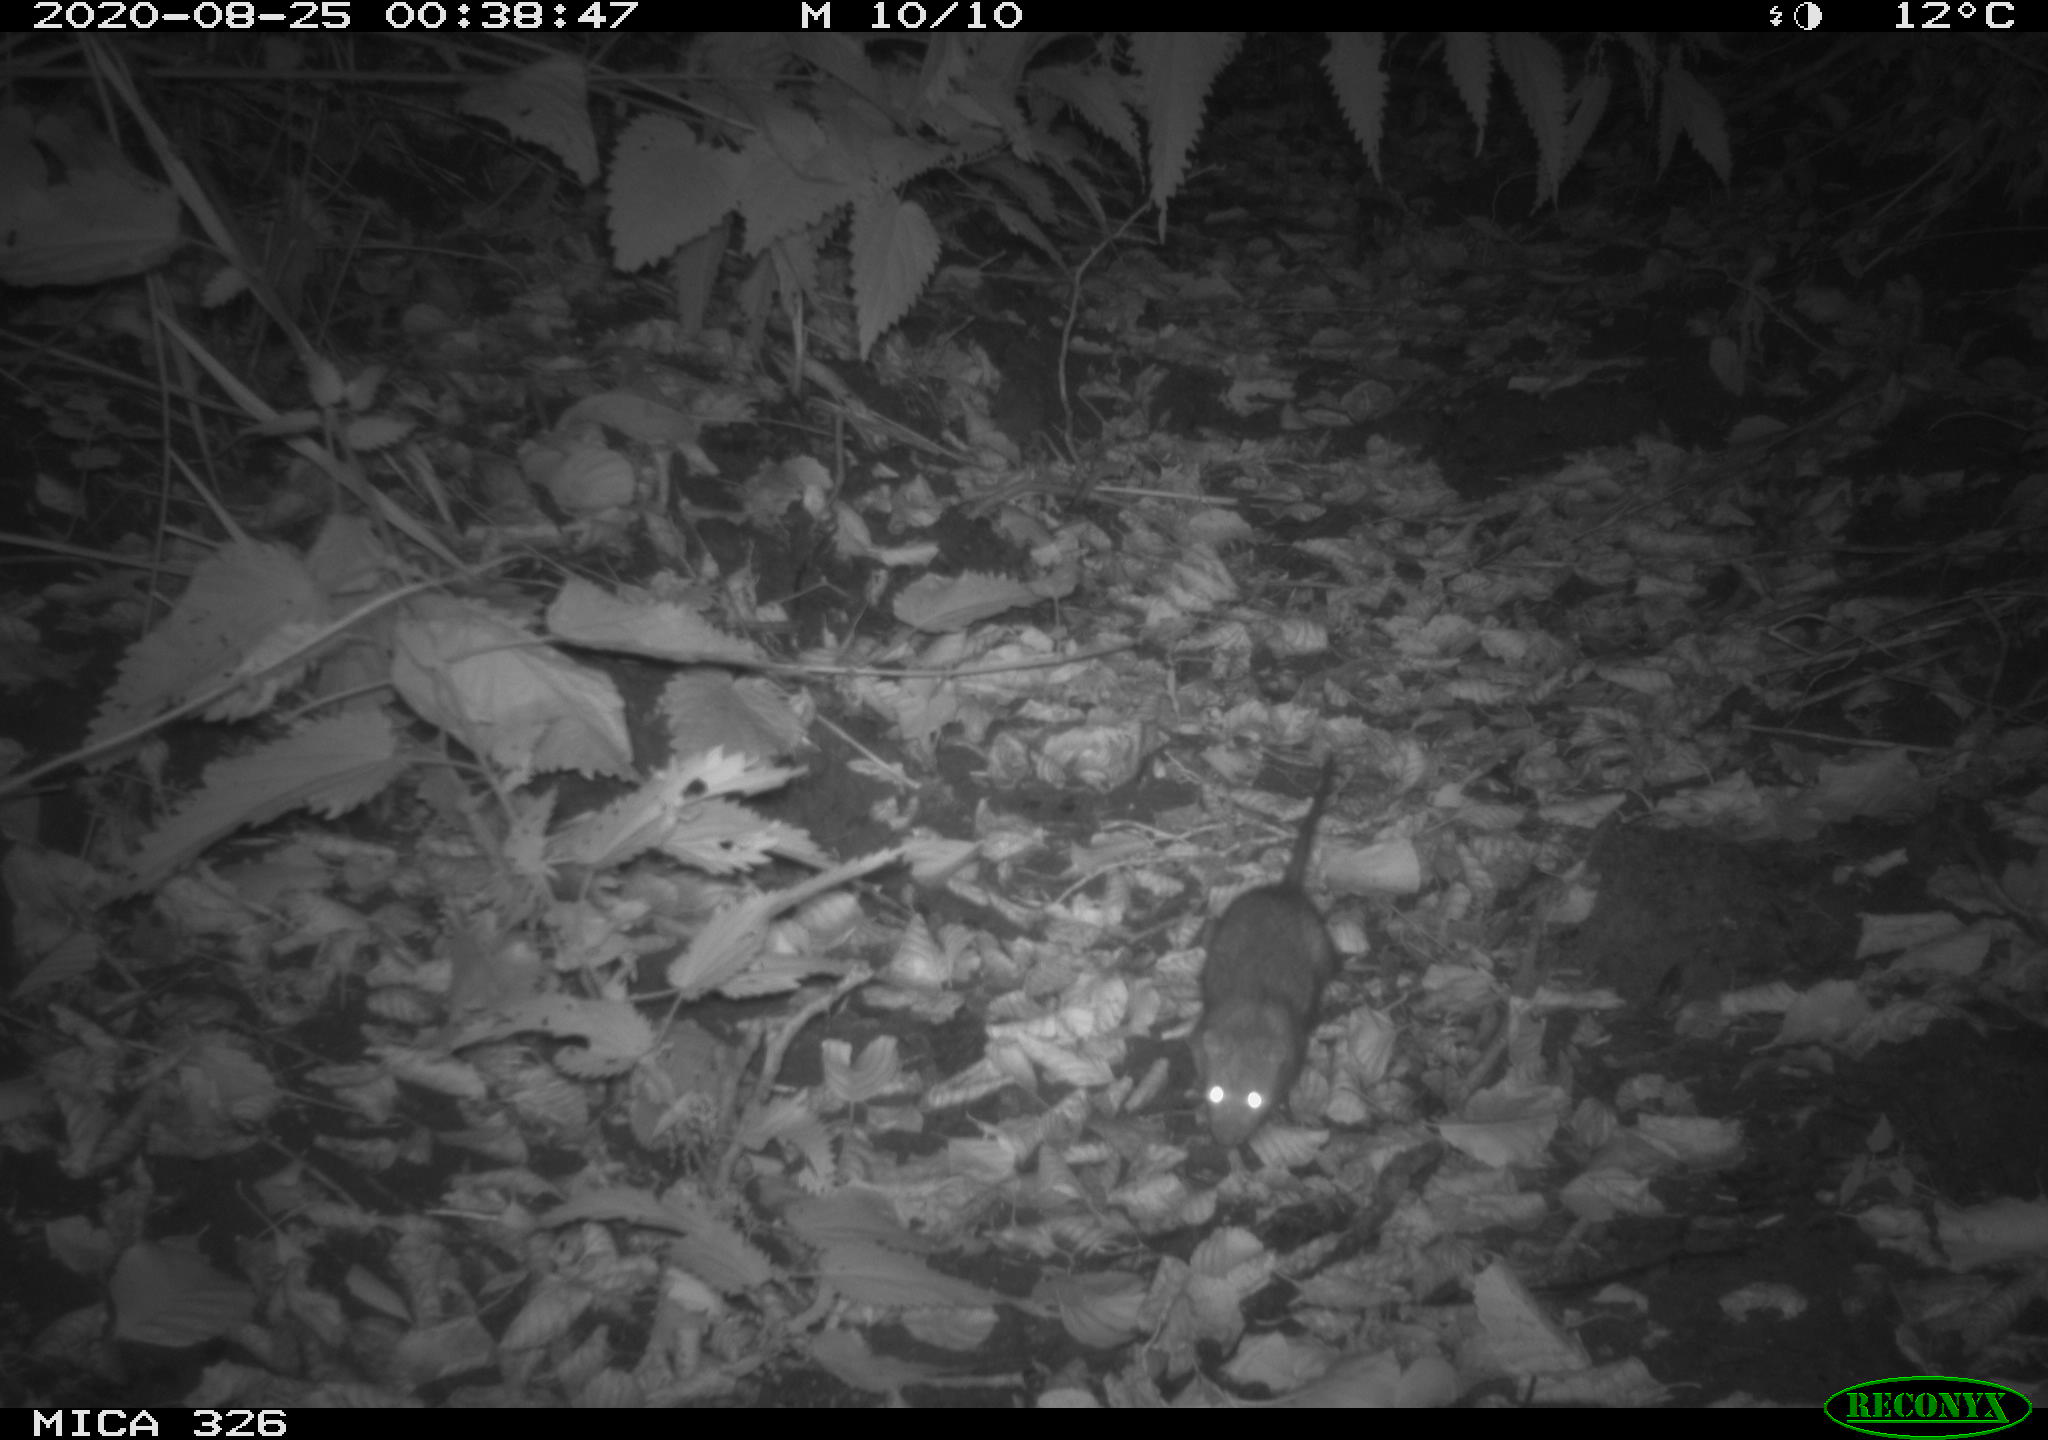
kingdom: Animalia
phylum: Chordata
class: Mammalia
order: Rodentia
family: Muridae
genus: Rattus
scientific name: Rattus norvegicus
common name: Brown rat
